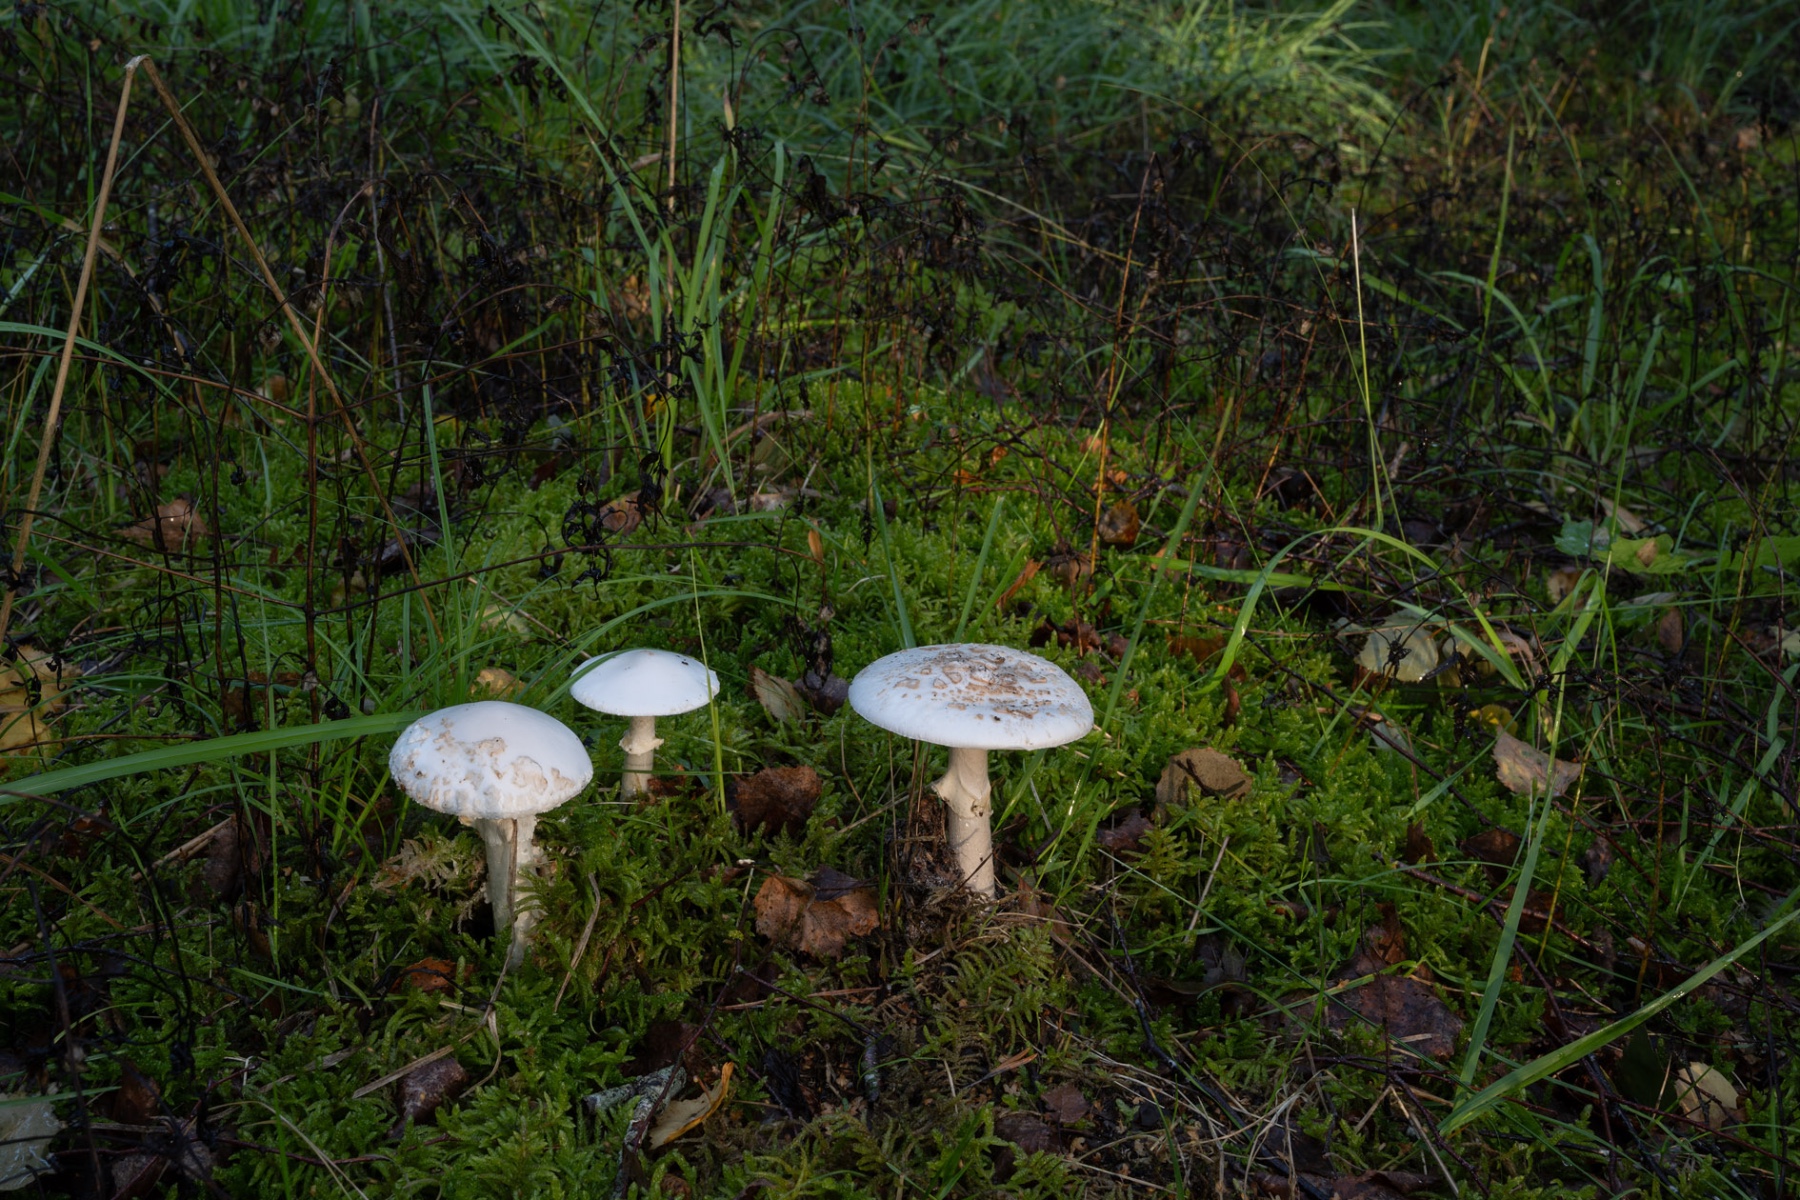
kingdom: Fungi
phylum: Basidiomycota
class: Agaricomycetes
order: Agaricales
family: Amanitaceae
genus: Amanita
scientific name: Amanita citrina
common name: False death-cap
